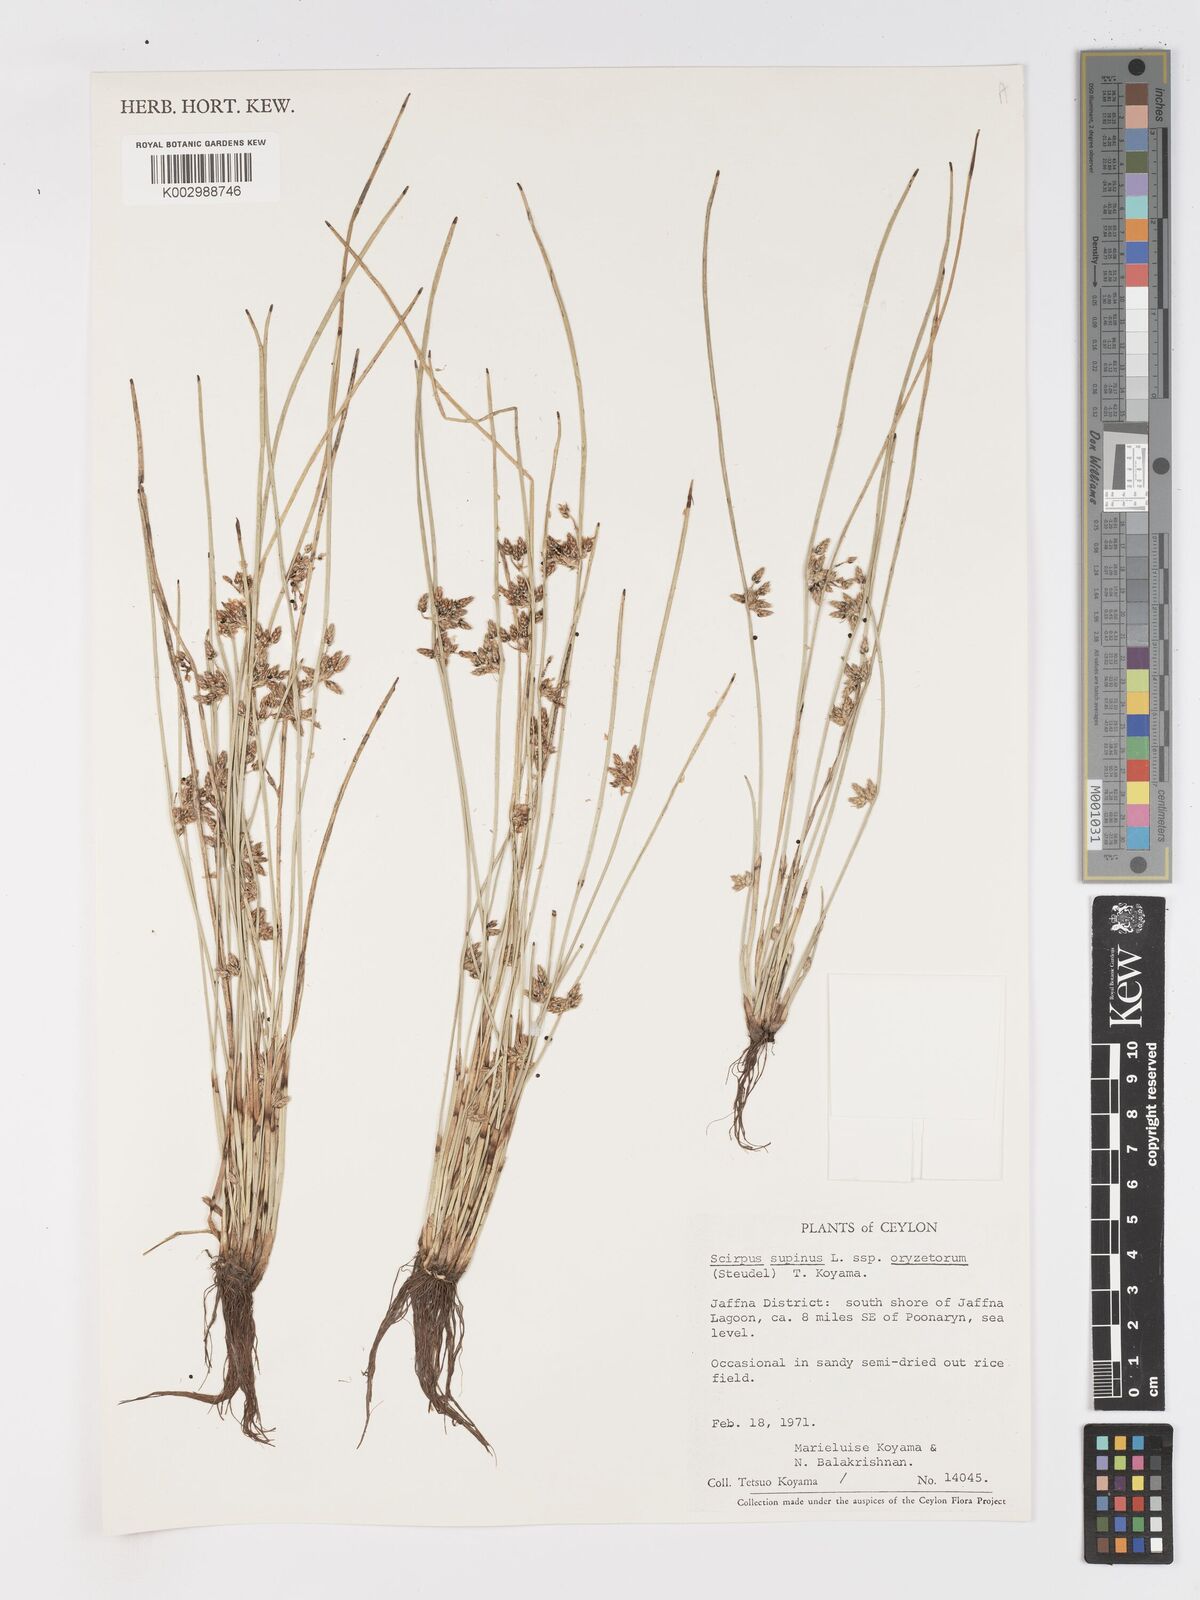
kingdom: Plantae
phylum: Tracheophyta
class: Liliopsida
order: Poales
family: Cyperaceae
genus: Schoenoplectiella
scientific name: Schoenoplectiella lateriflora
